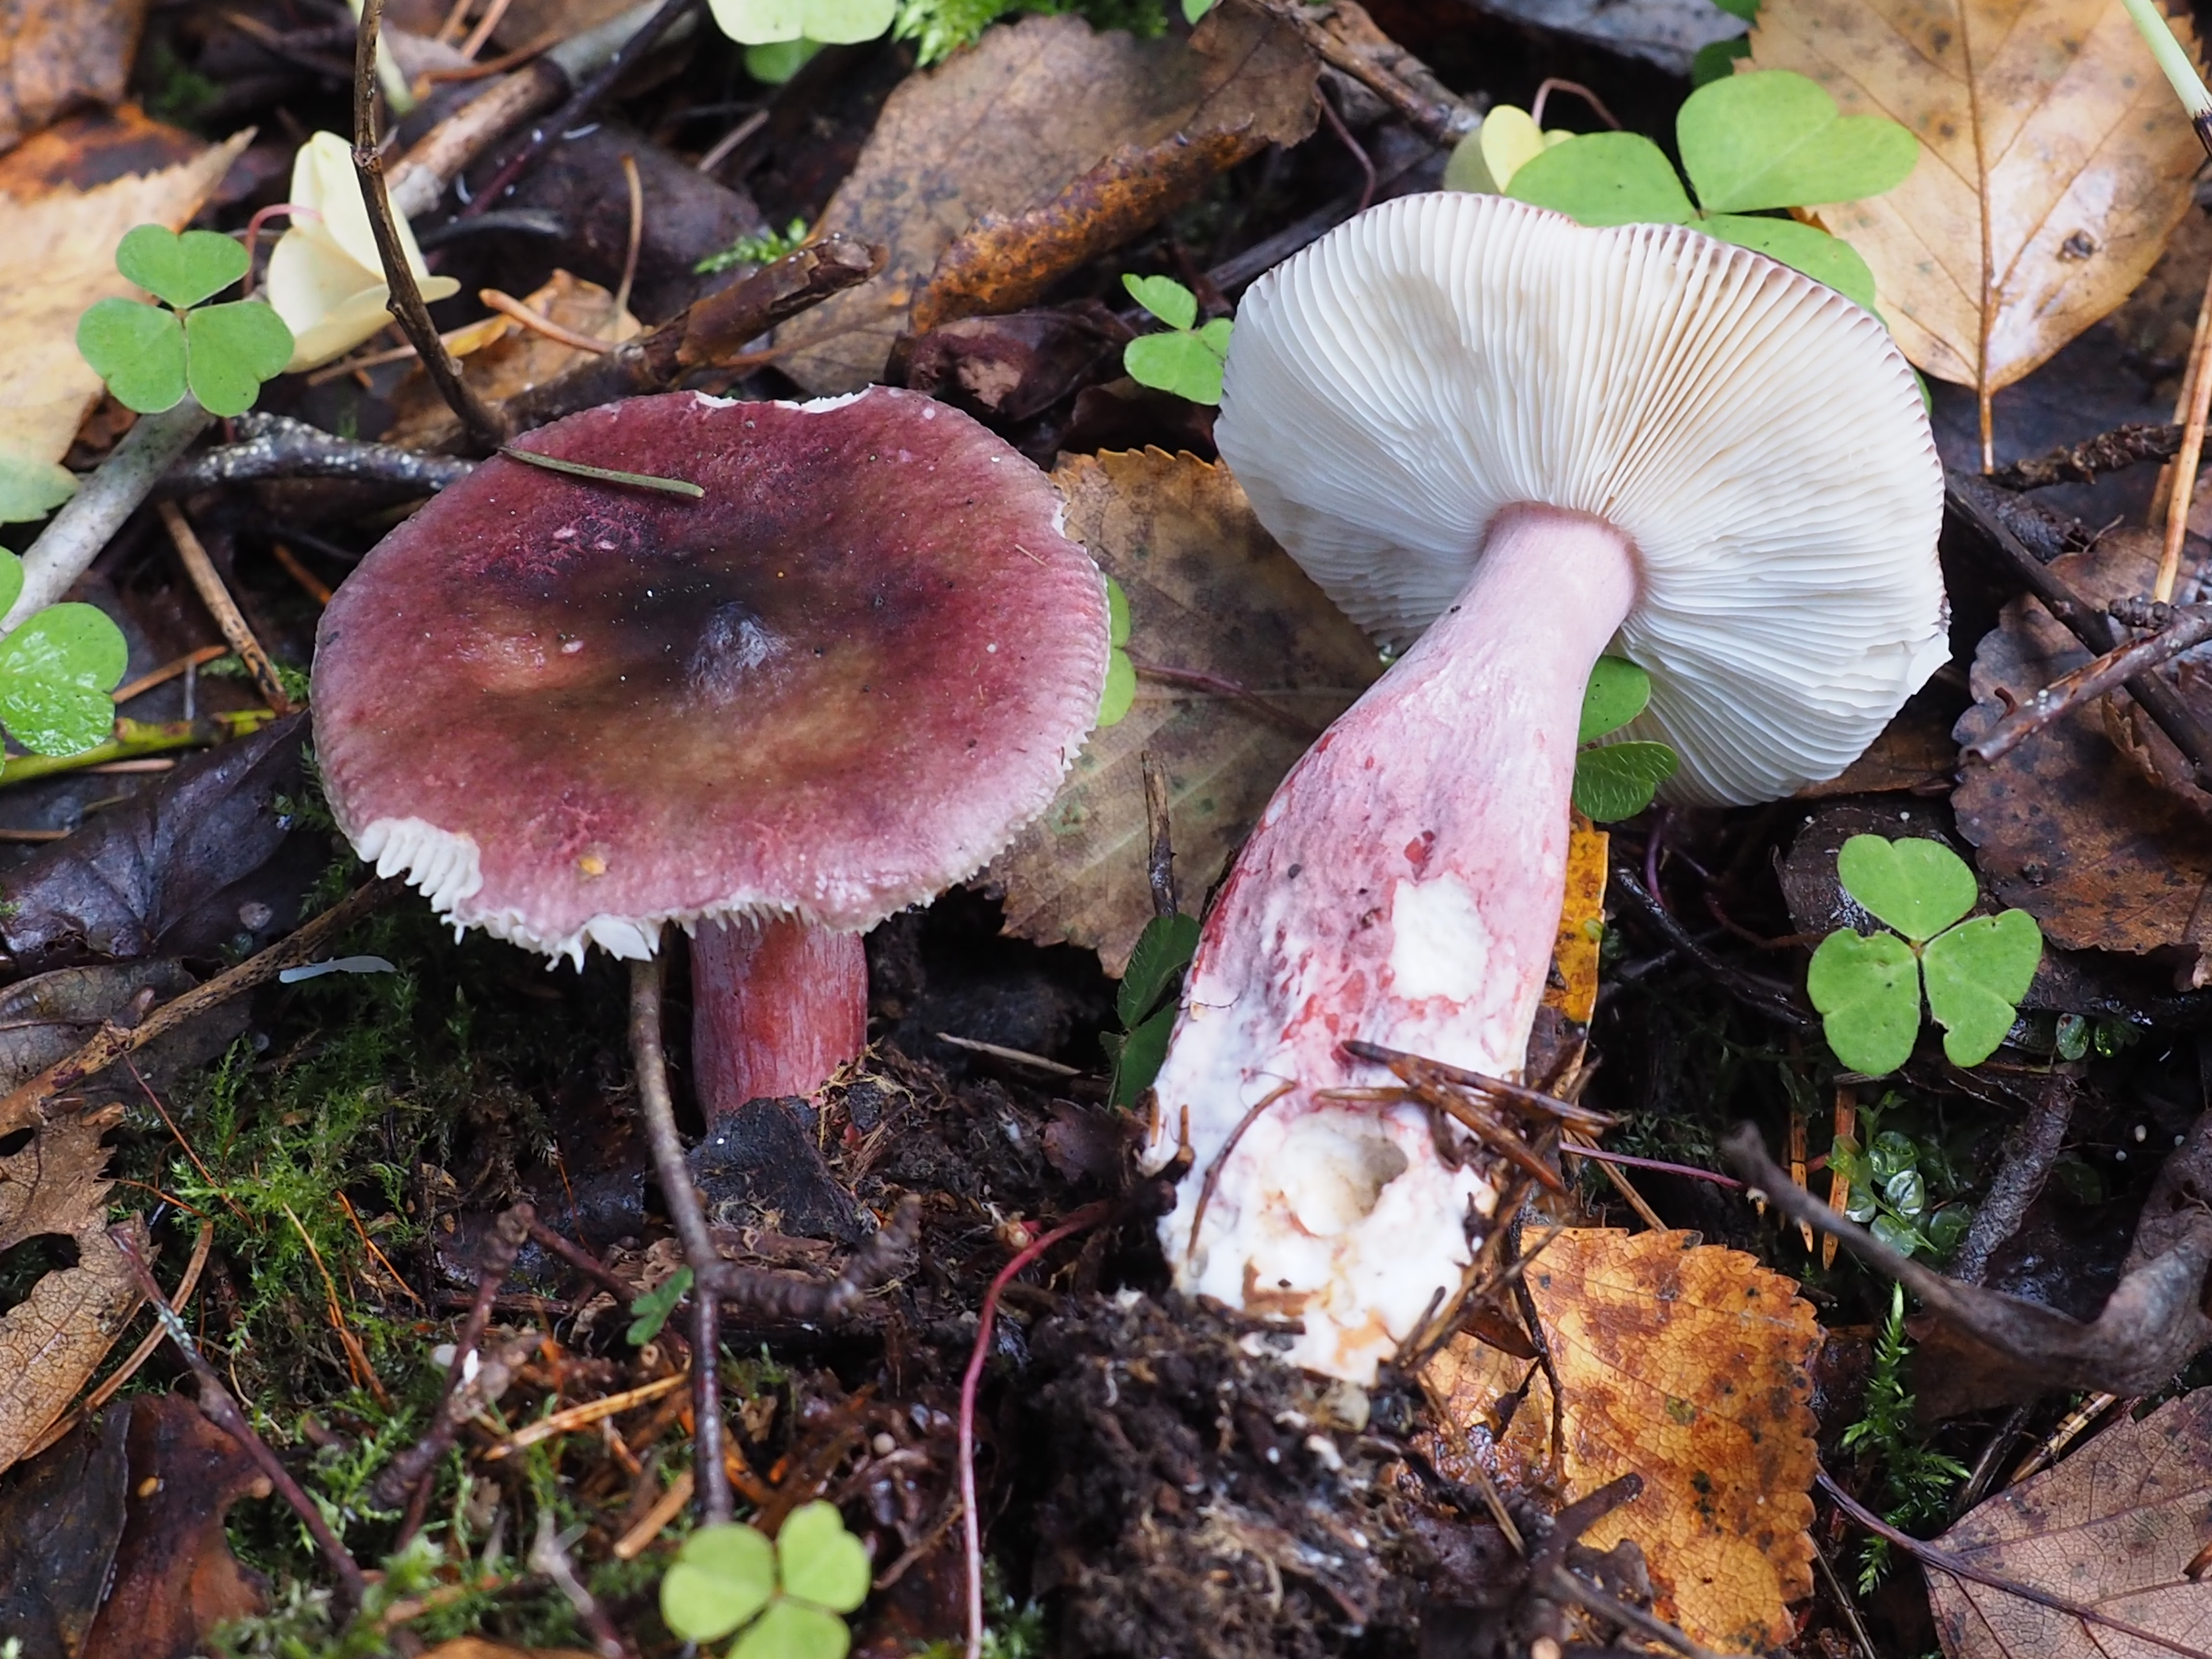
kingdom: Fungi
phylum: Basidiomycota
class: Agaricomycetes
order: Russulales
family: Russulaceae
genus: Russula
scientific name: Russula queletii
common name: Fruity brittlegill
